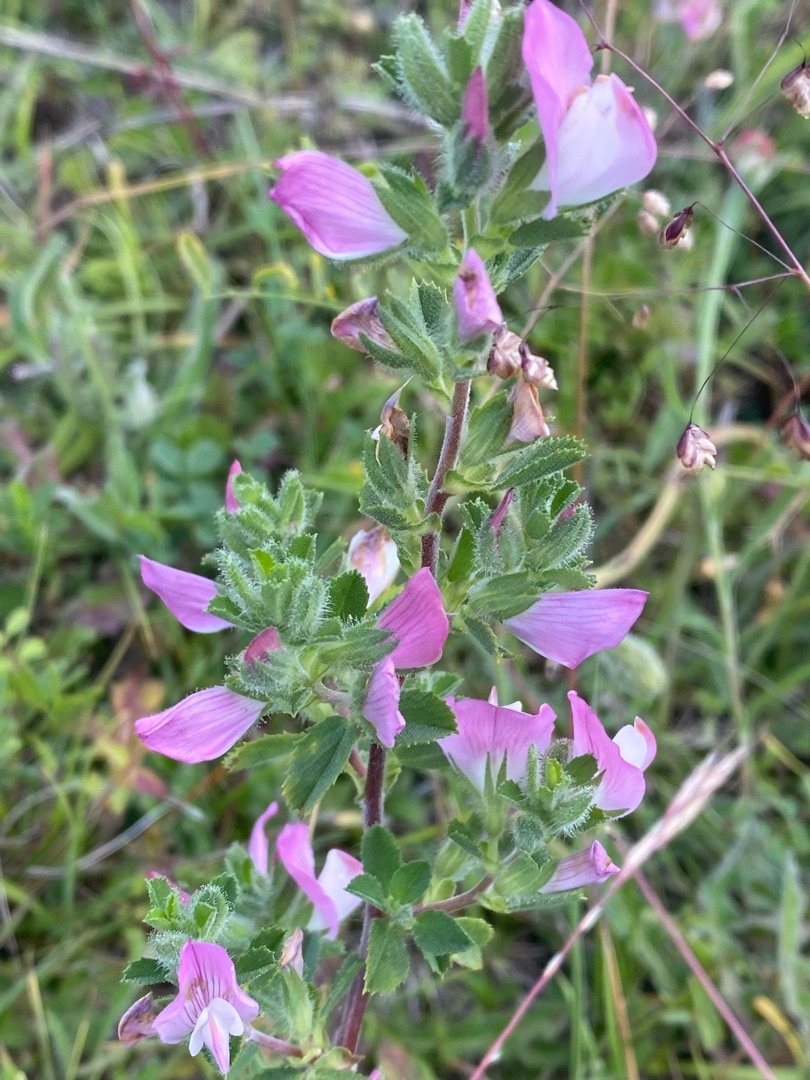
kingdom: Plantae
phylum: Tracheophyta
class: Magnoliopsida
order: Fabales
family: Fabaceae
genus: Ononis
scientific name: Ononis spinosa
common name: Mark-krageklo
